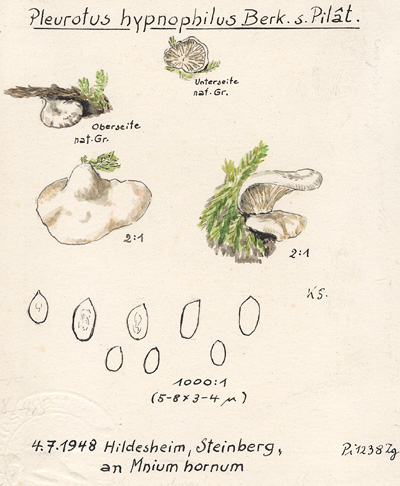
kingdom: Fungi
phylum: Basidiomycota
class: Agaricomycetes
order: Agaricales
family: Crepidotaceae
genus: Crepidotus
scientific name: Crepidotus epibryus
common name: Grass oysterling
